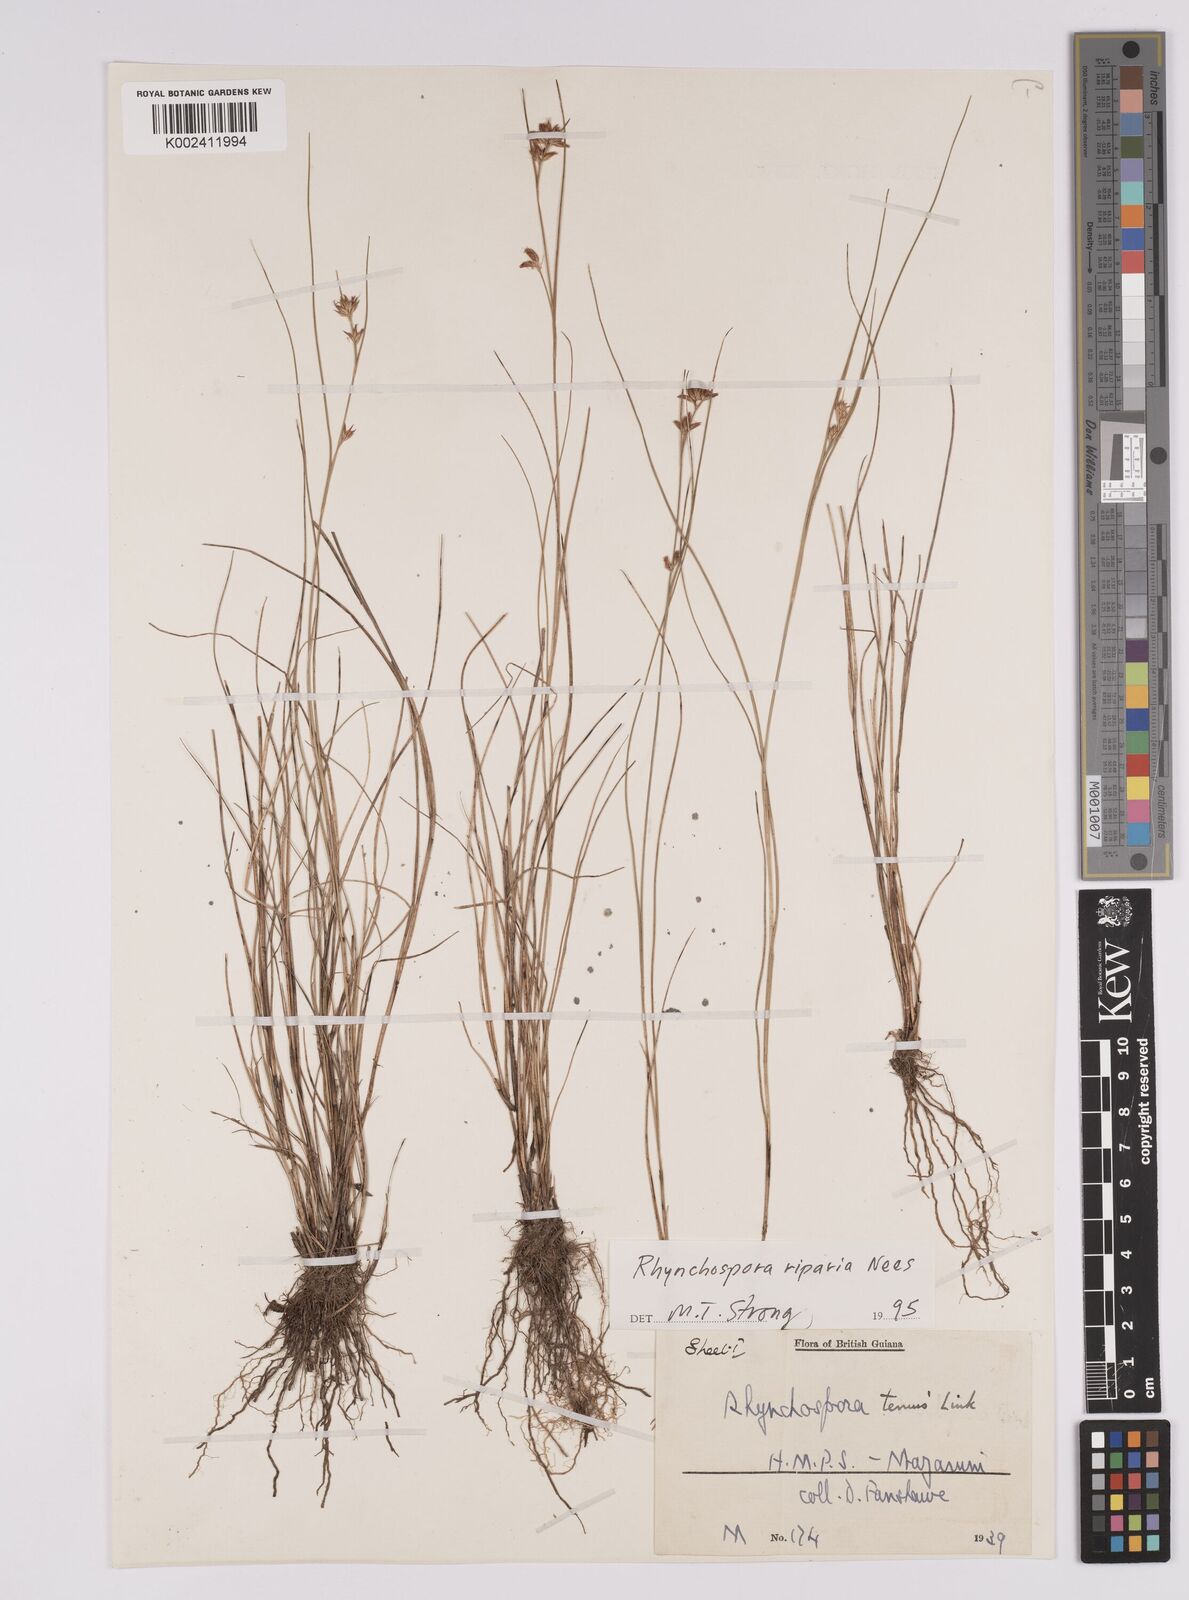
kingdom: Plantae
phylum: Tracheophyta
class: Liliopsida
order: Poales
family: Cyperaceae
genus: Rhynchospora
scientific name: Rhynchospora riparia
